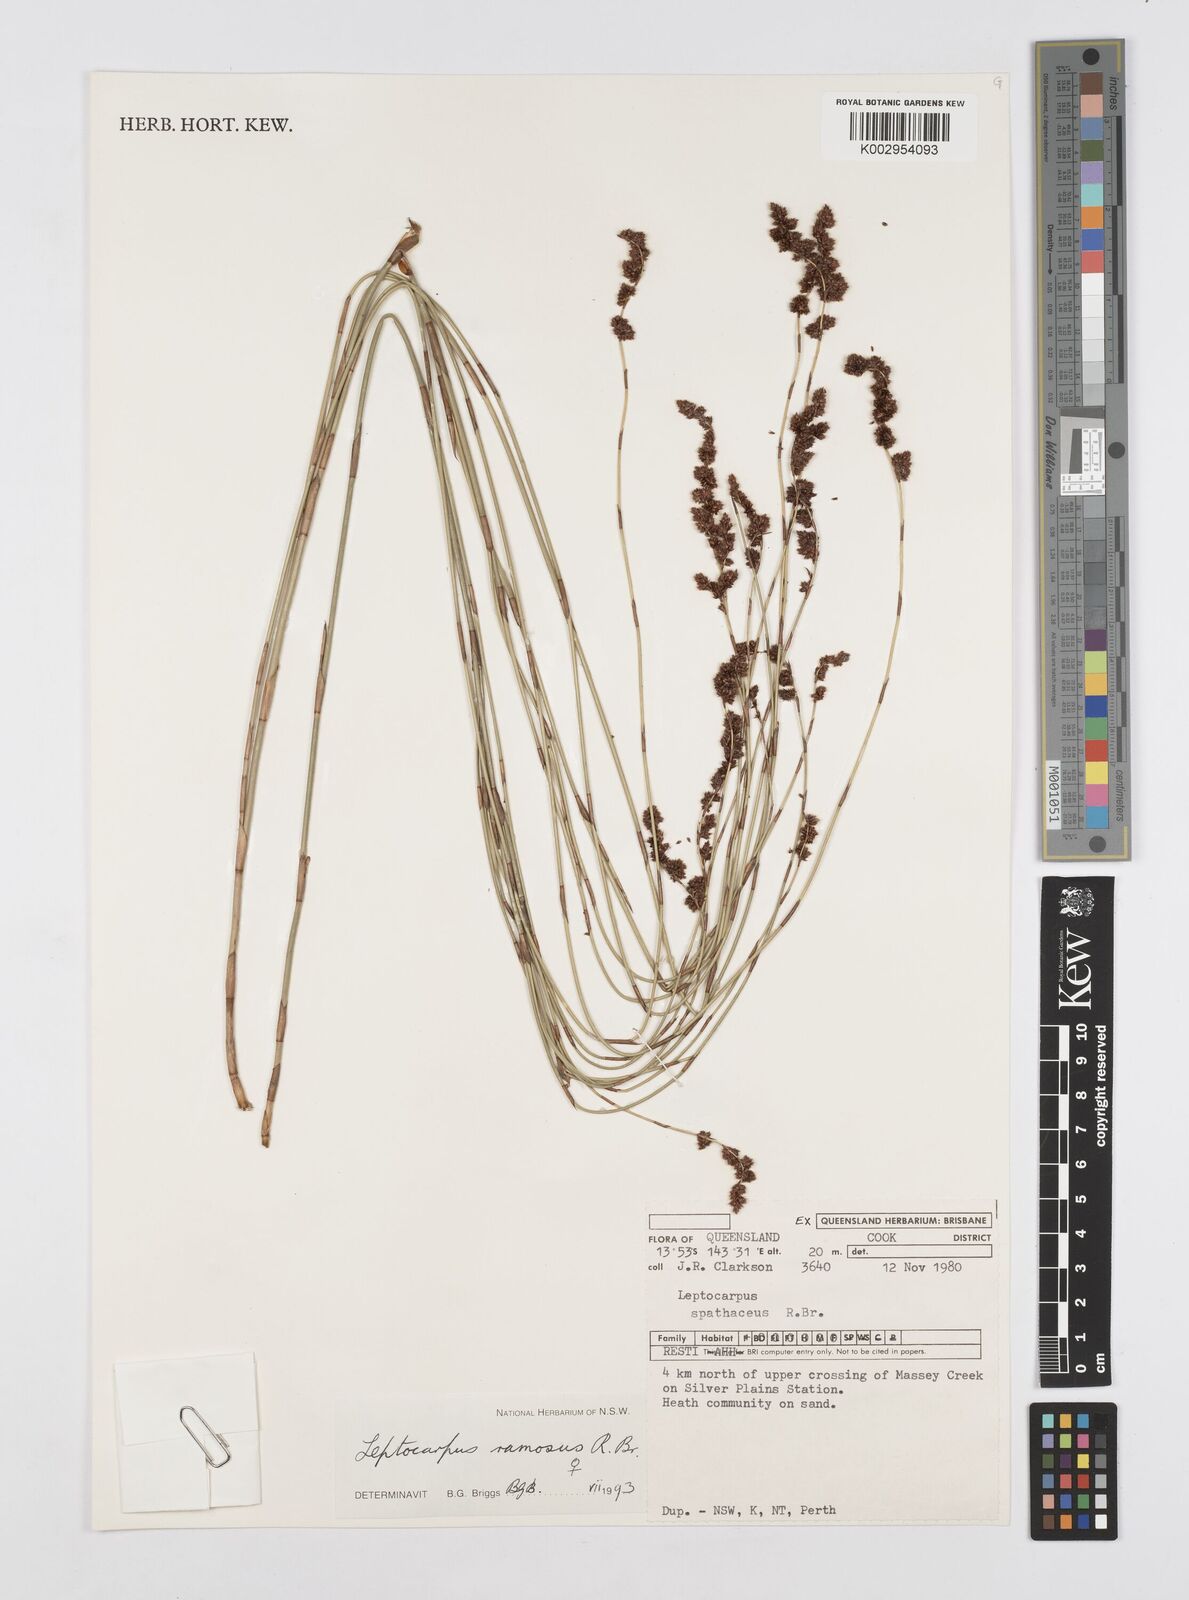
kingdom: Plantae
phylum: Tracheophyta
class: Liliopsida
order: Poales
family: Restionaceae
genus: Dapsilanthus
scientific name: Dapsilanthus ramosus
